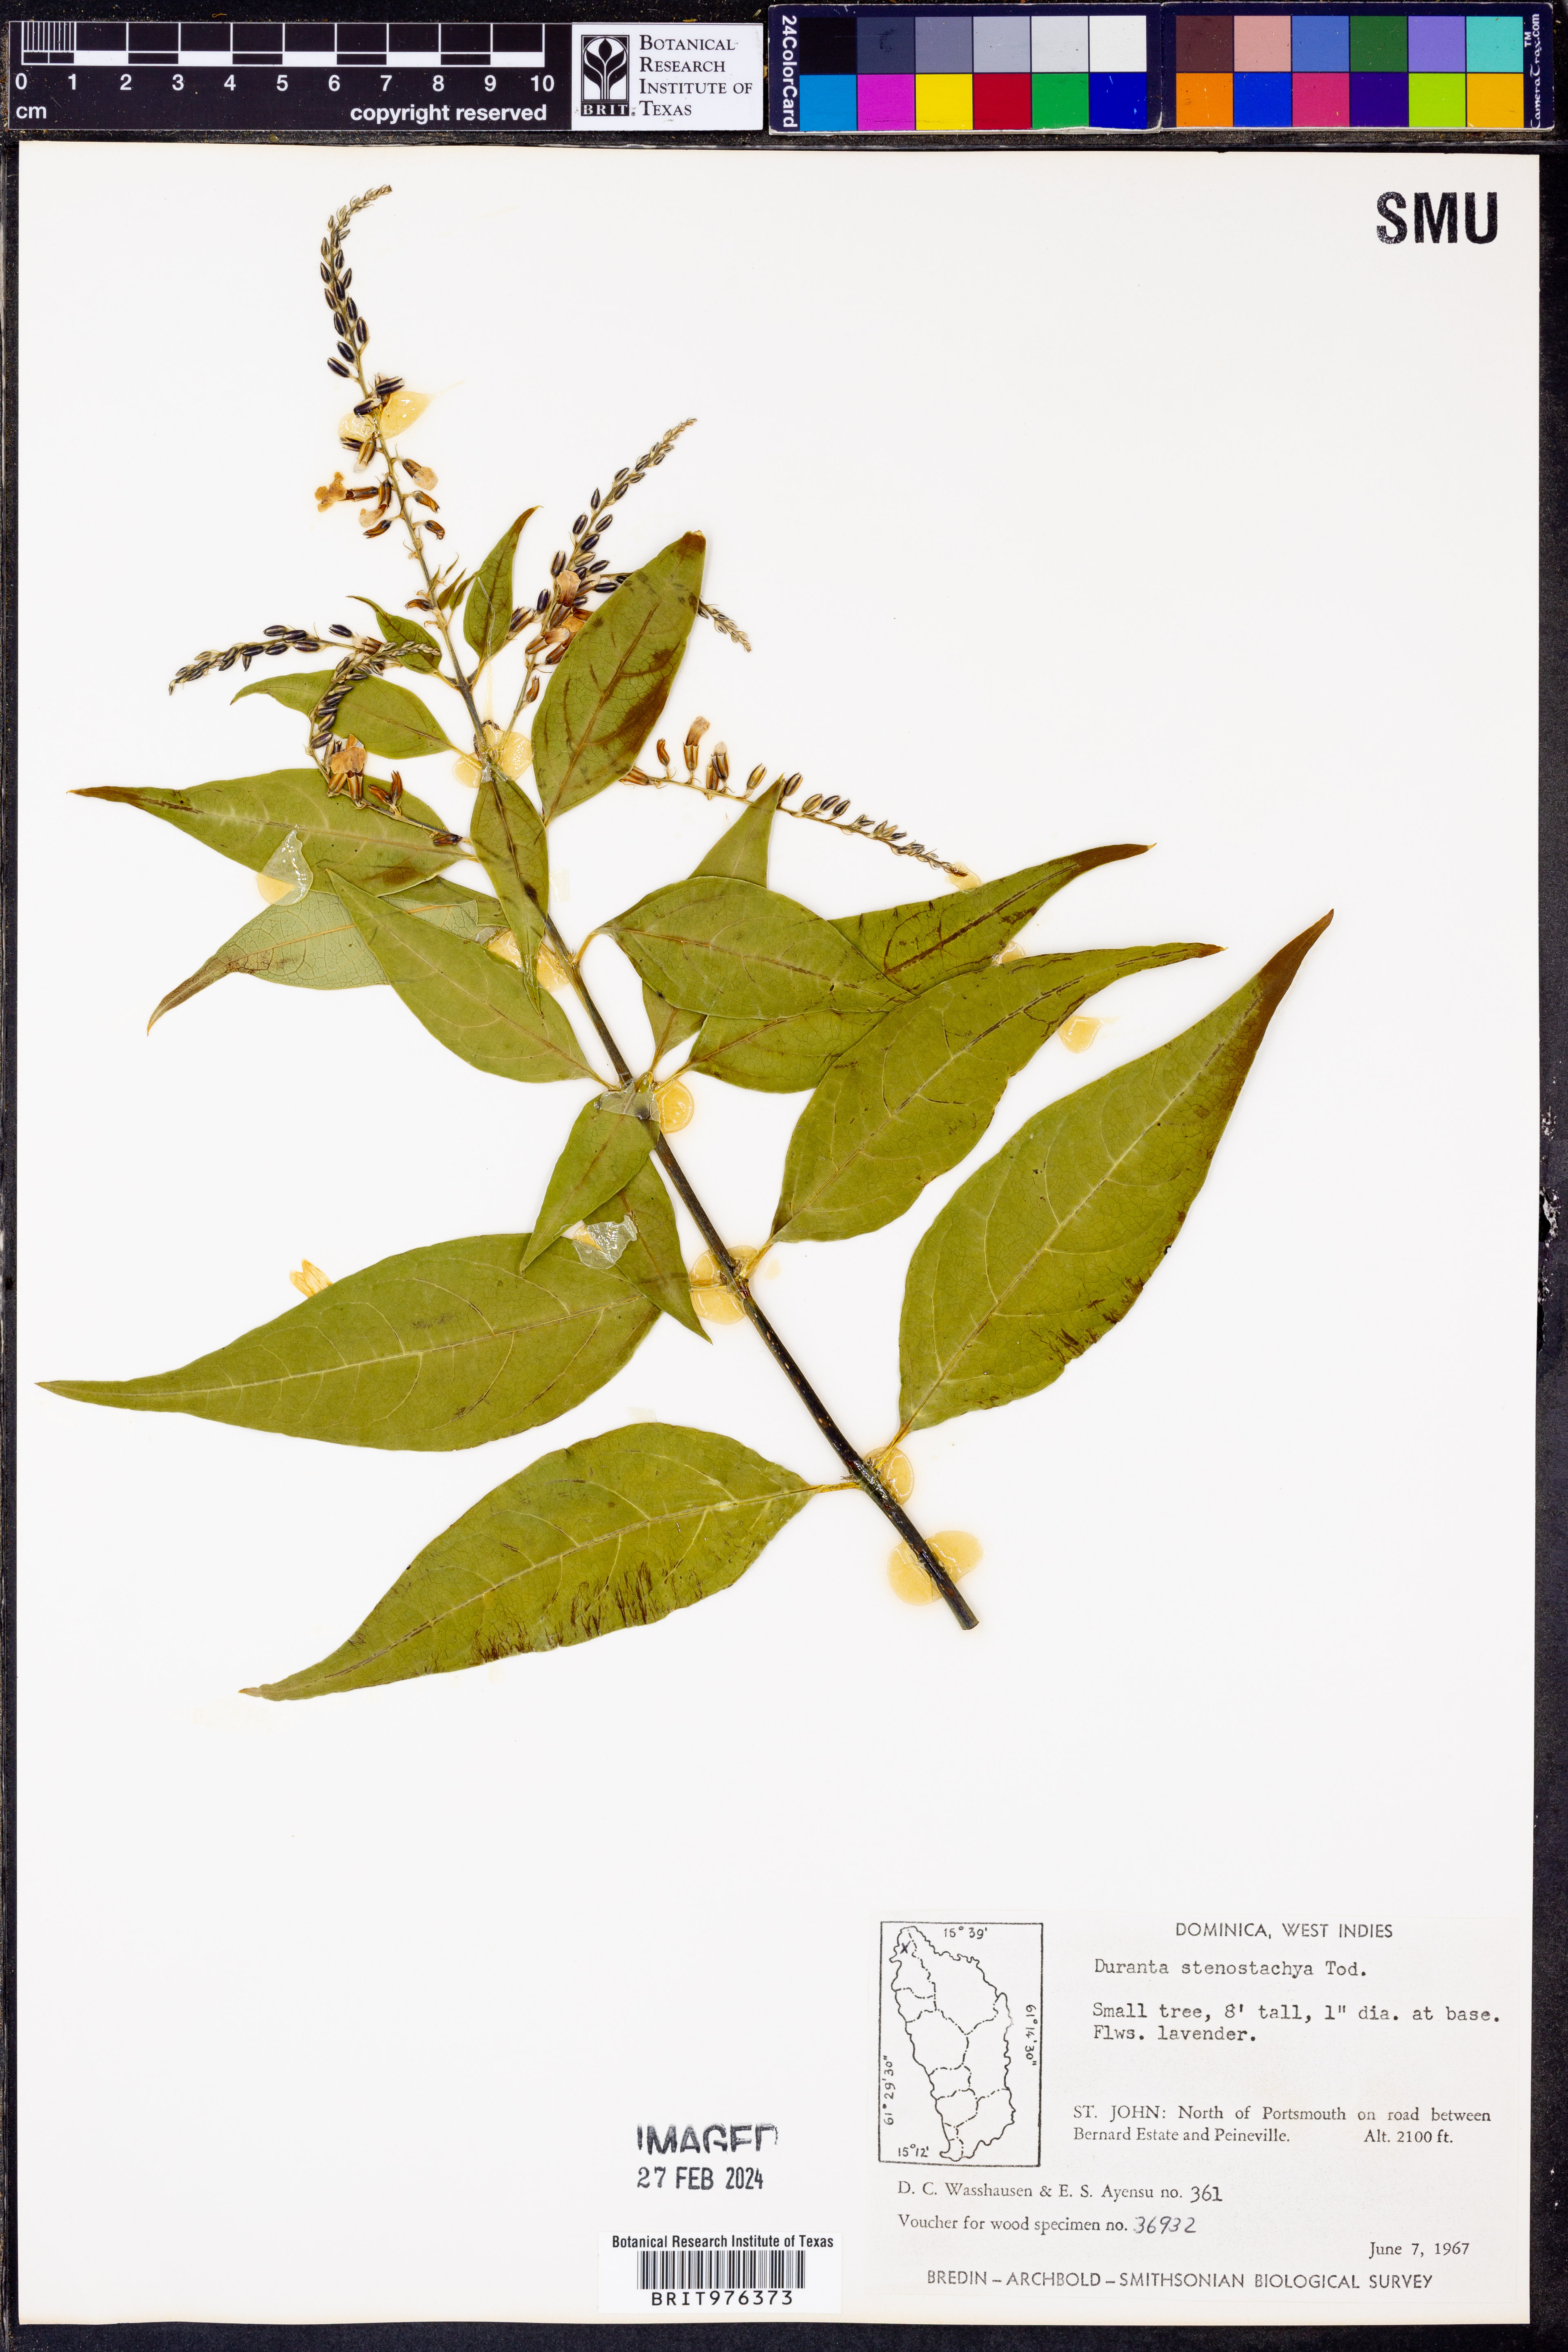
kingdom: Plantae
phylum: Tracheophyta
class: Magnoliopsida
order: Lamiales
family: Verbenaceae
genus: Duranta
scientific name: Duranta
